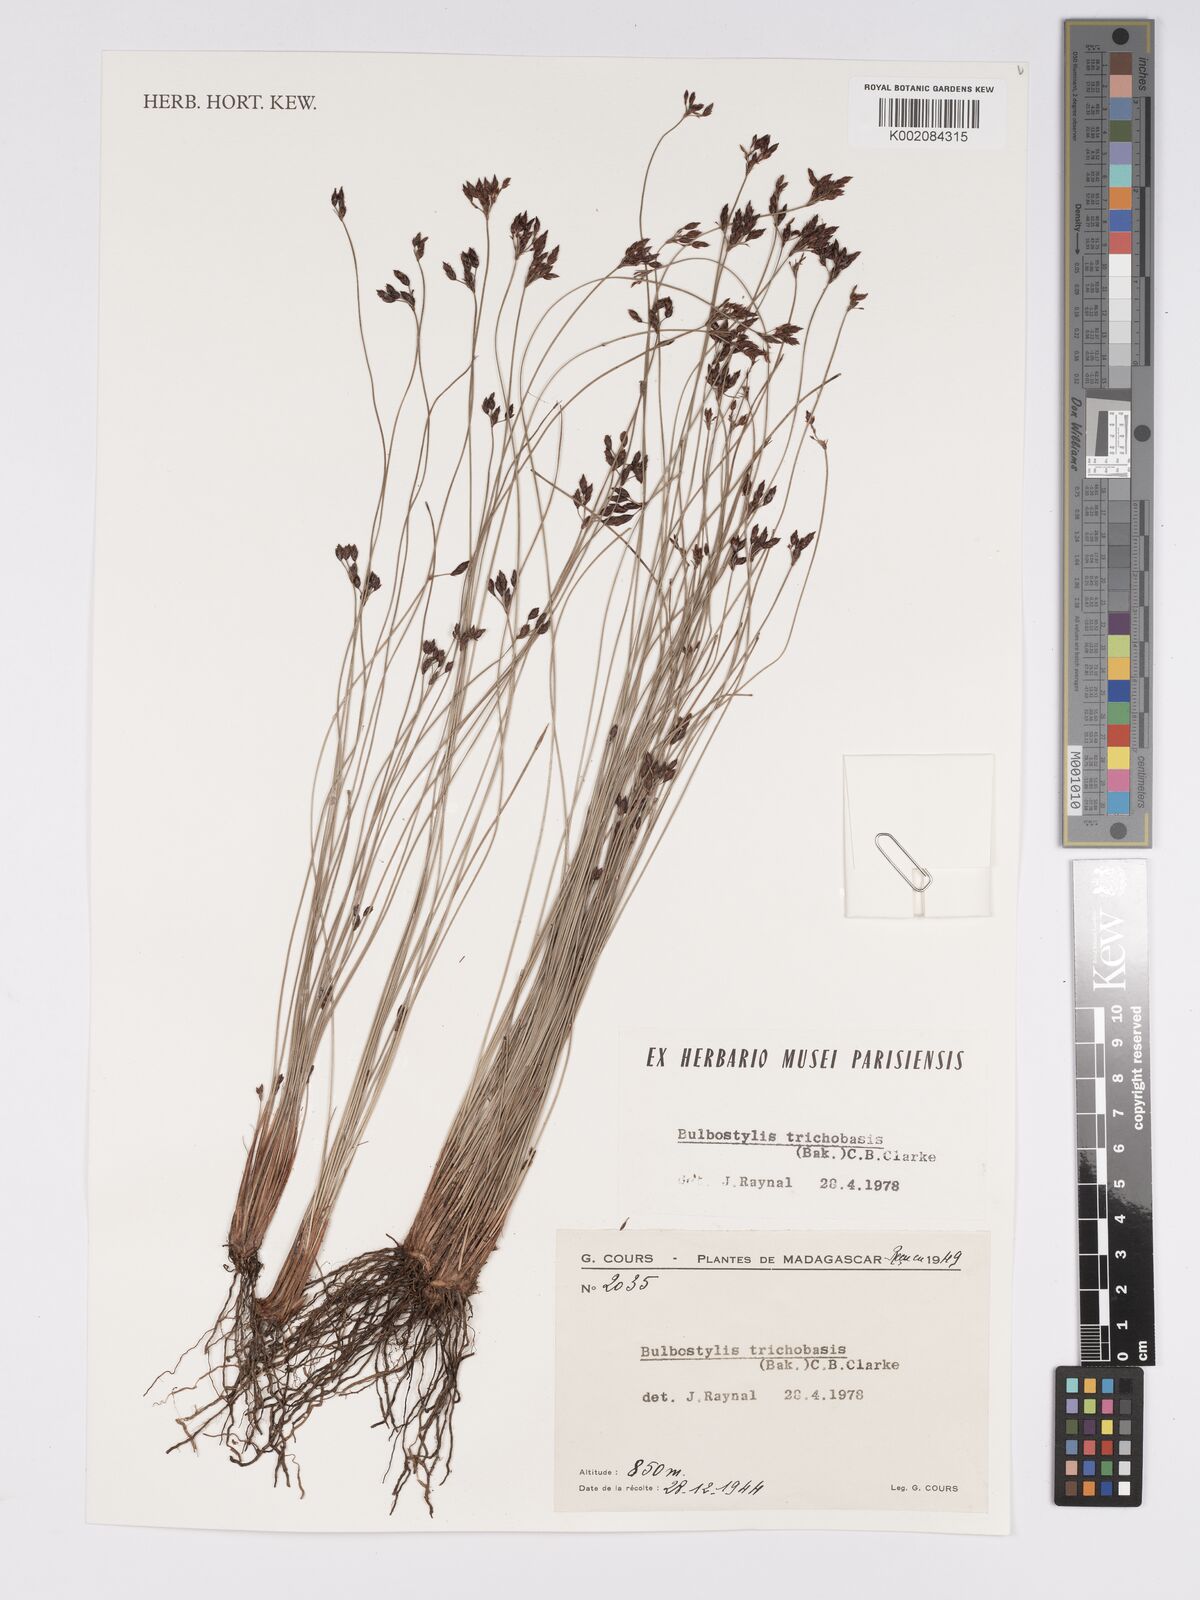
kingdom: Plantae
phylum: Tracheophyta
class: Liliopsida
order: Poales
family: Cyperaceae
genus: Bulbostylis
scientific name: Bulbostylis trichobasis
